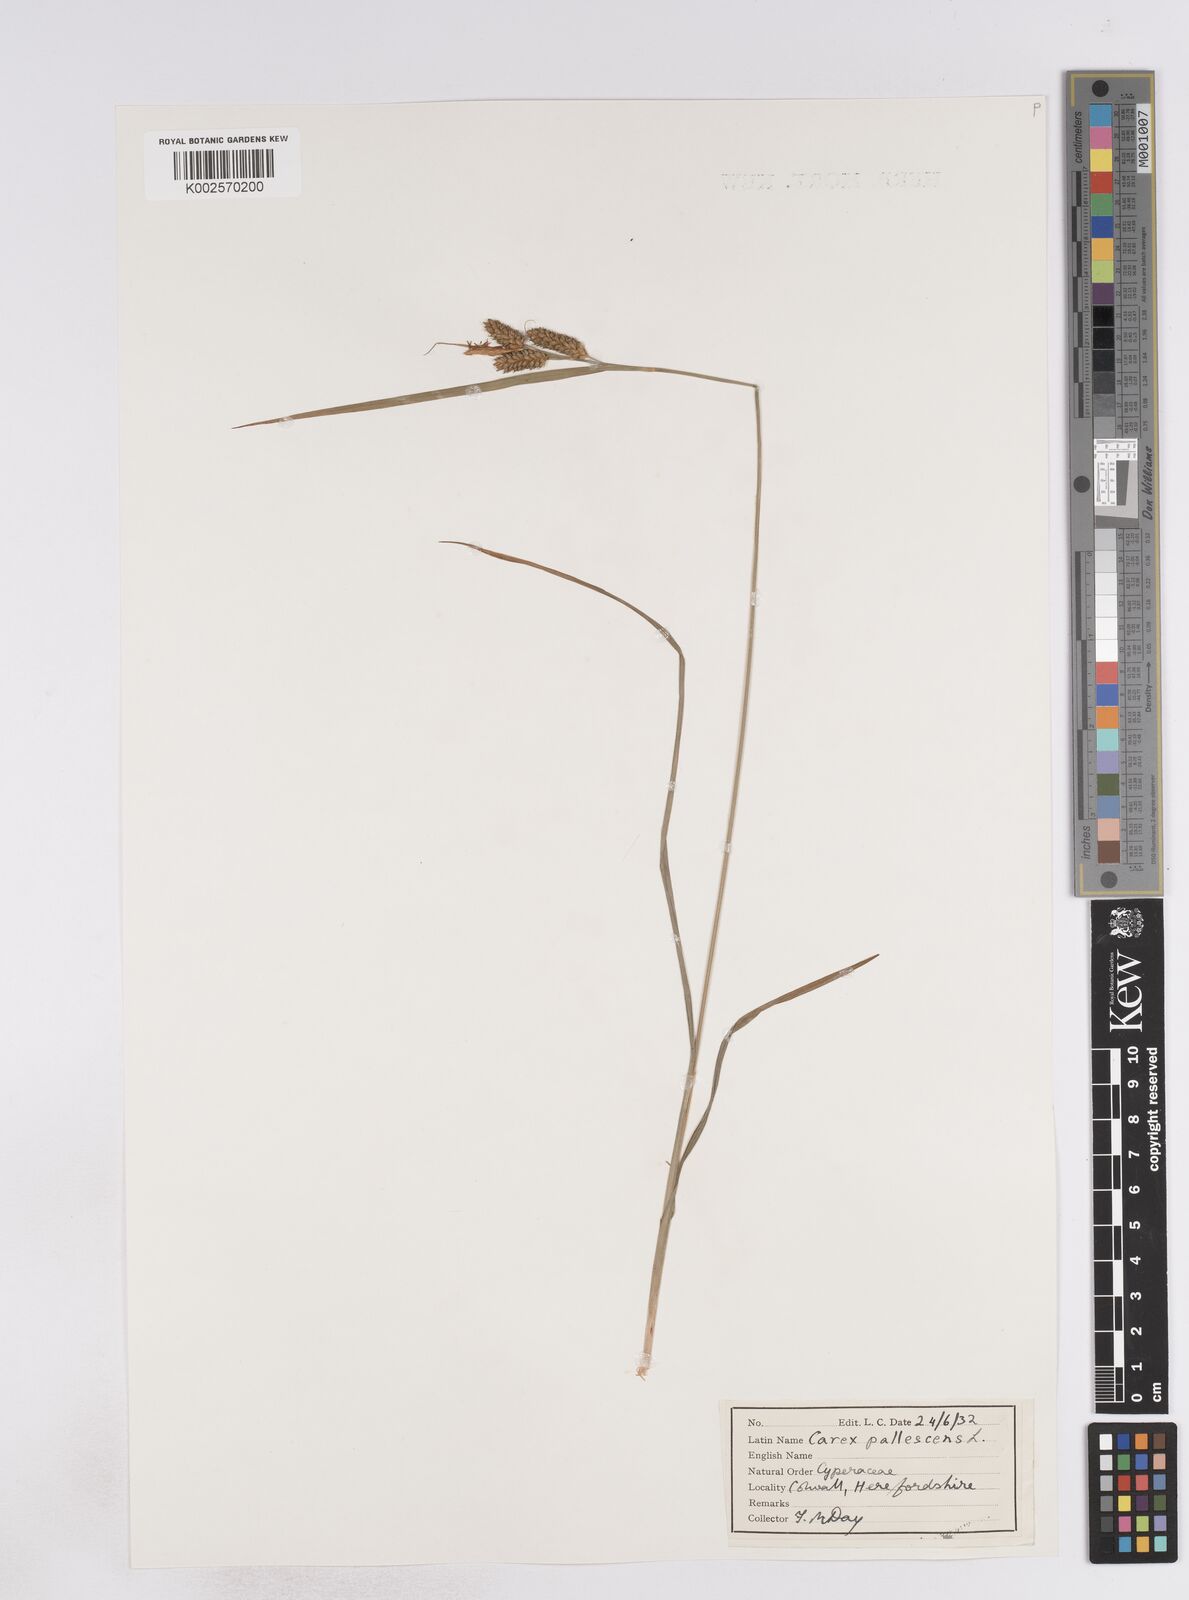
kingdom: Plantae
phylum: Tracheophyta
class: Liliopsida
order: Poales
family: Cyperaceae
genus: Carex
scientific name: Carex pallescens
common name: Pale sedge
